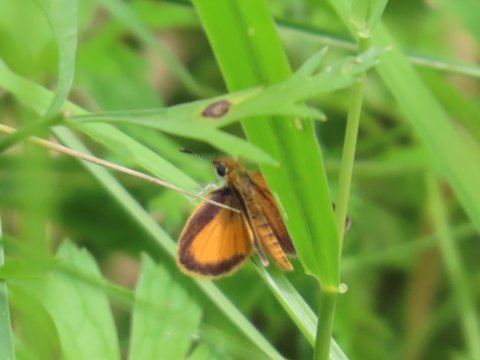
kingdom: Animalia
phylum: Arthropoda
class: Insecta
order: Lepidoptera
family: Hesperiidae
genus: Ancyloxypha
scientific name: Ancyloxypha numitor
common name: Least Skipper
